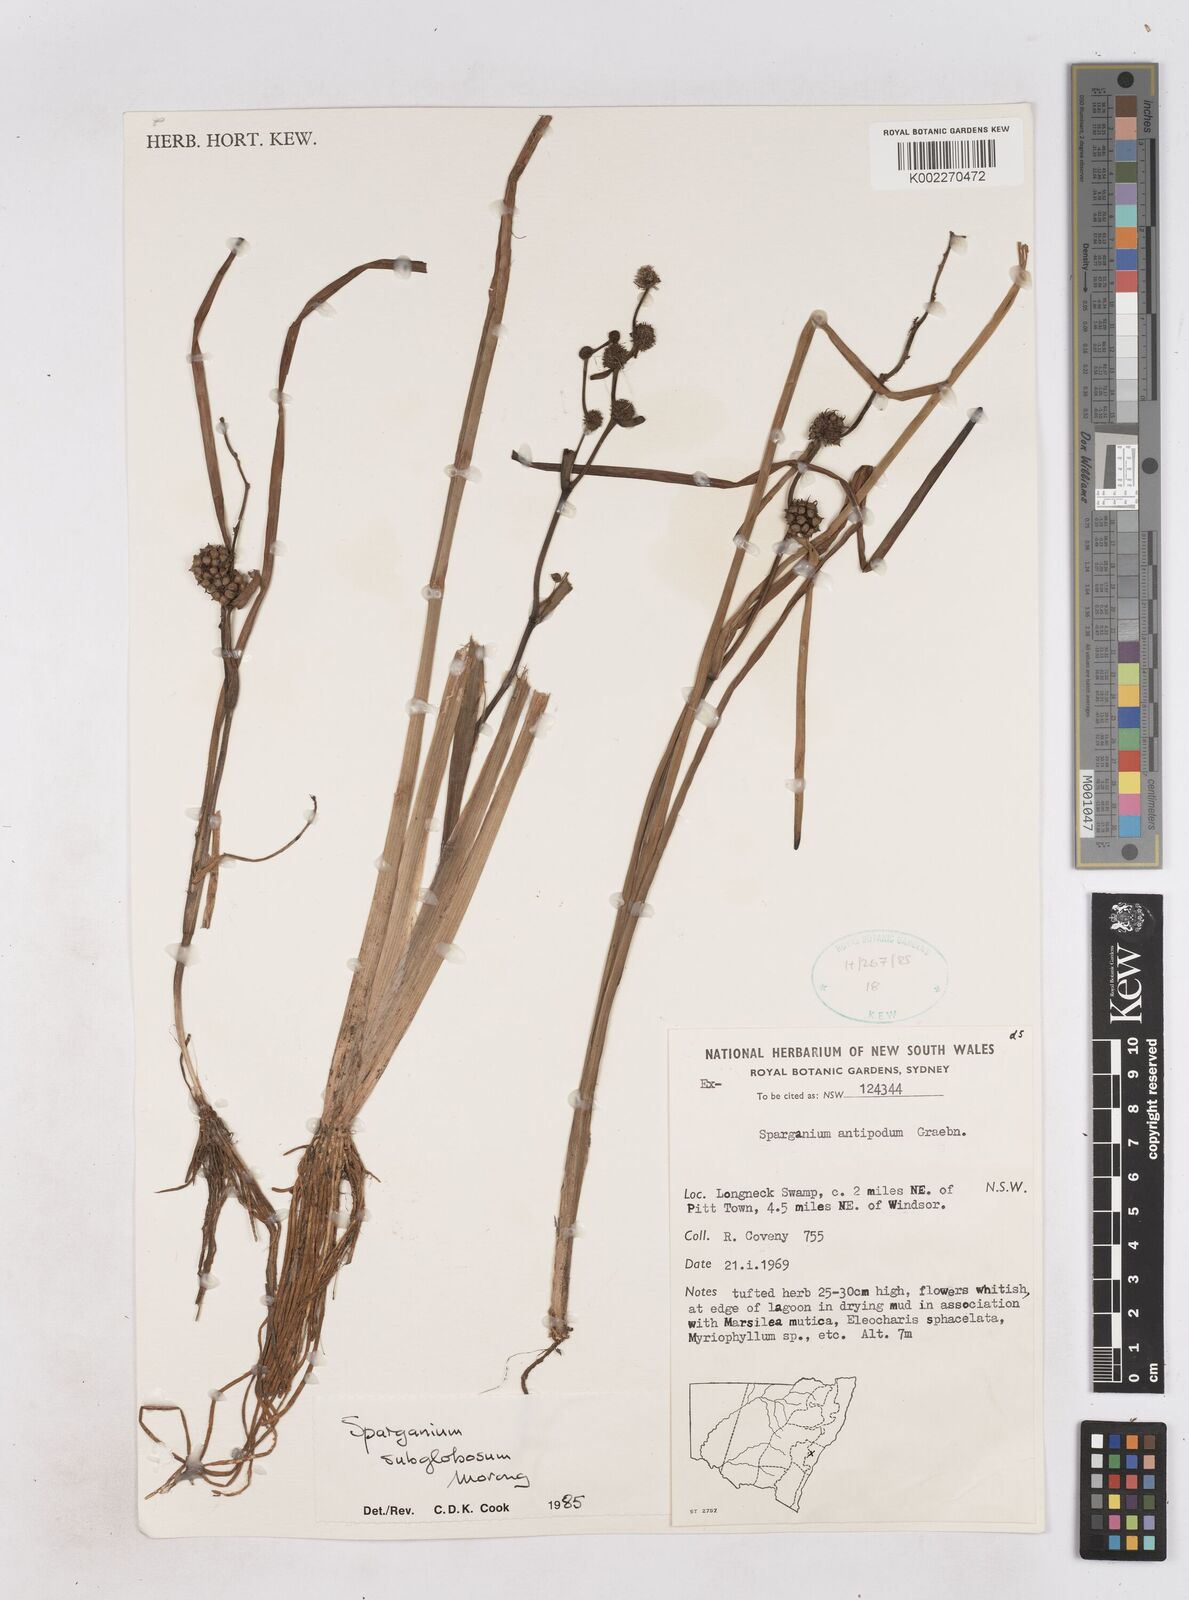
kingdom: Plantae
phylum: Tracheophyta
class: Liliopsida
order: Poales
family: Typhaceae
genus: Sparganium
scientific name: Sparganium subglobosum
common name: Burr­-reed
